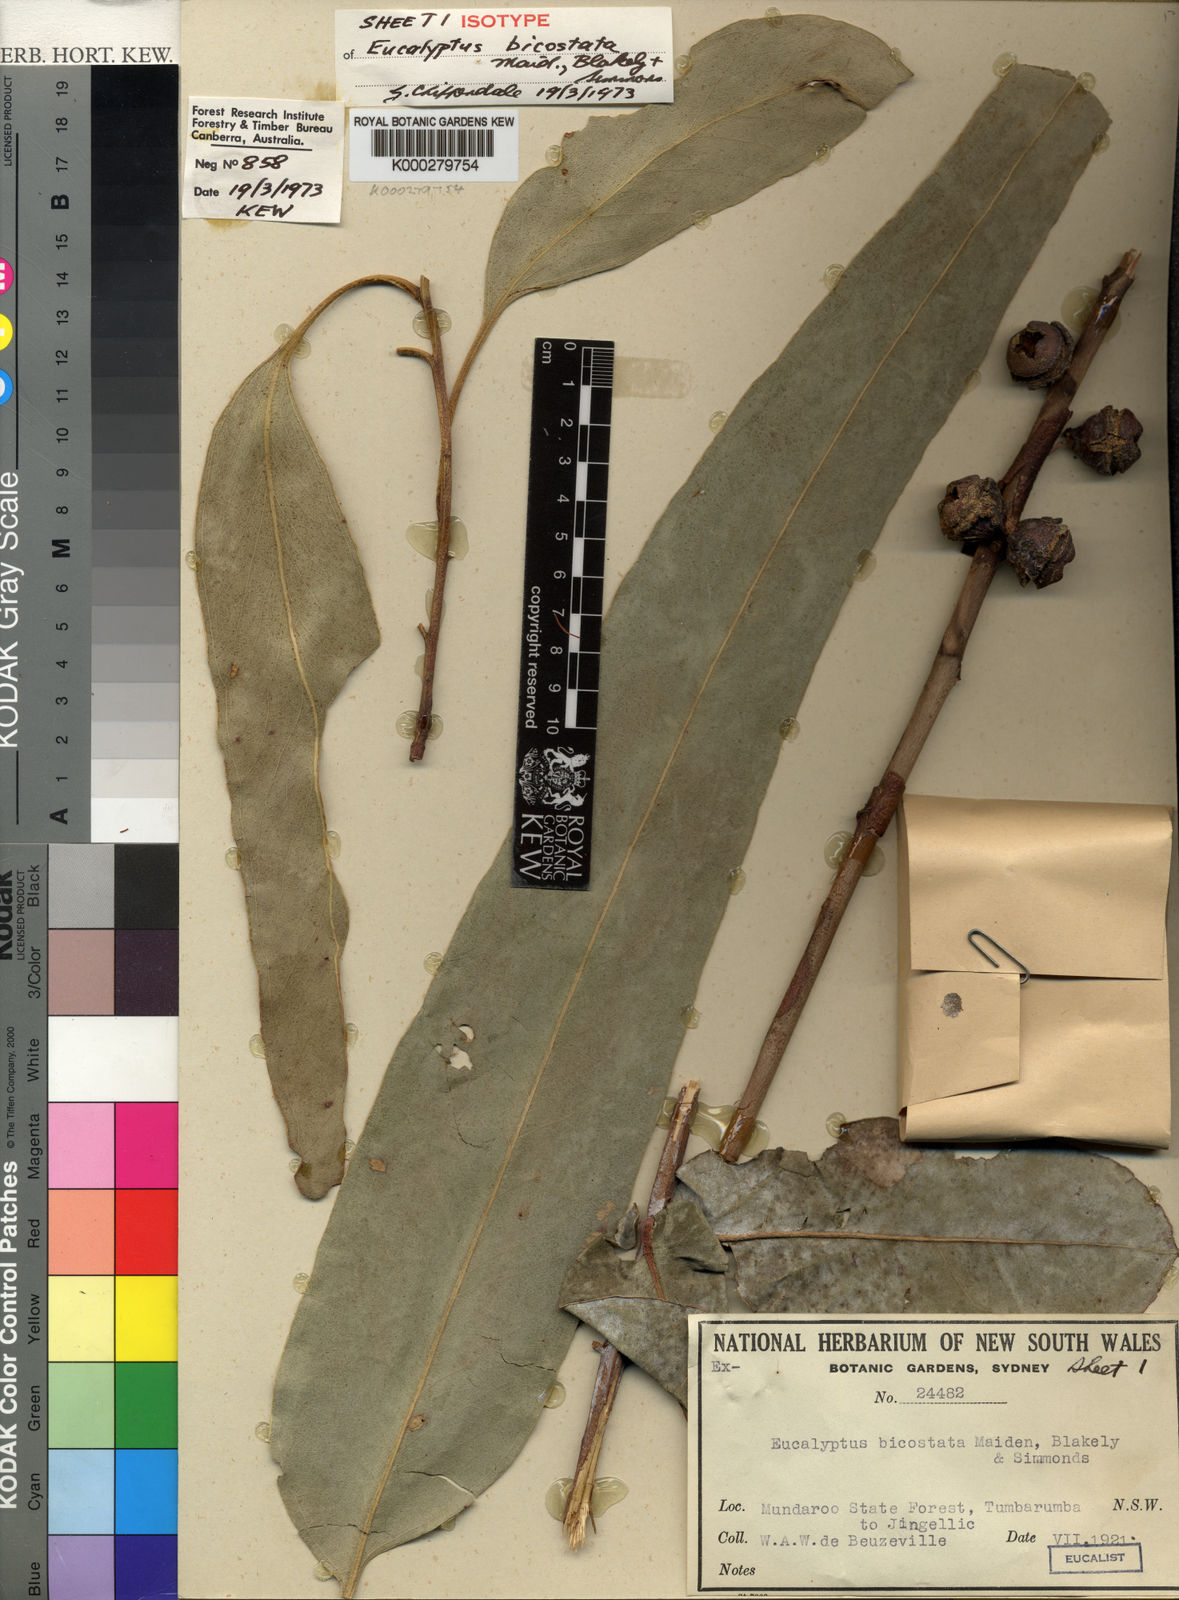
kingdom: Plantae
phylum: Tracheophyta
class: Magnoliopsida
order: Myrtales
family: Myrtaceae
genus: Eucalyptus
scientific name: Eucalyptus globulus
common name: Southern blue-gum
